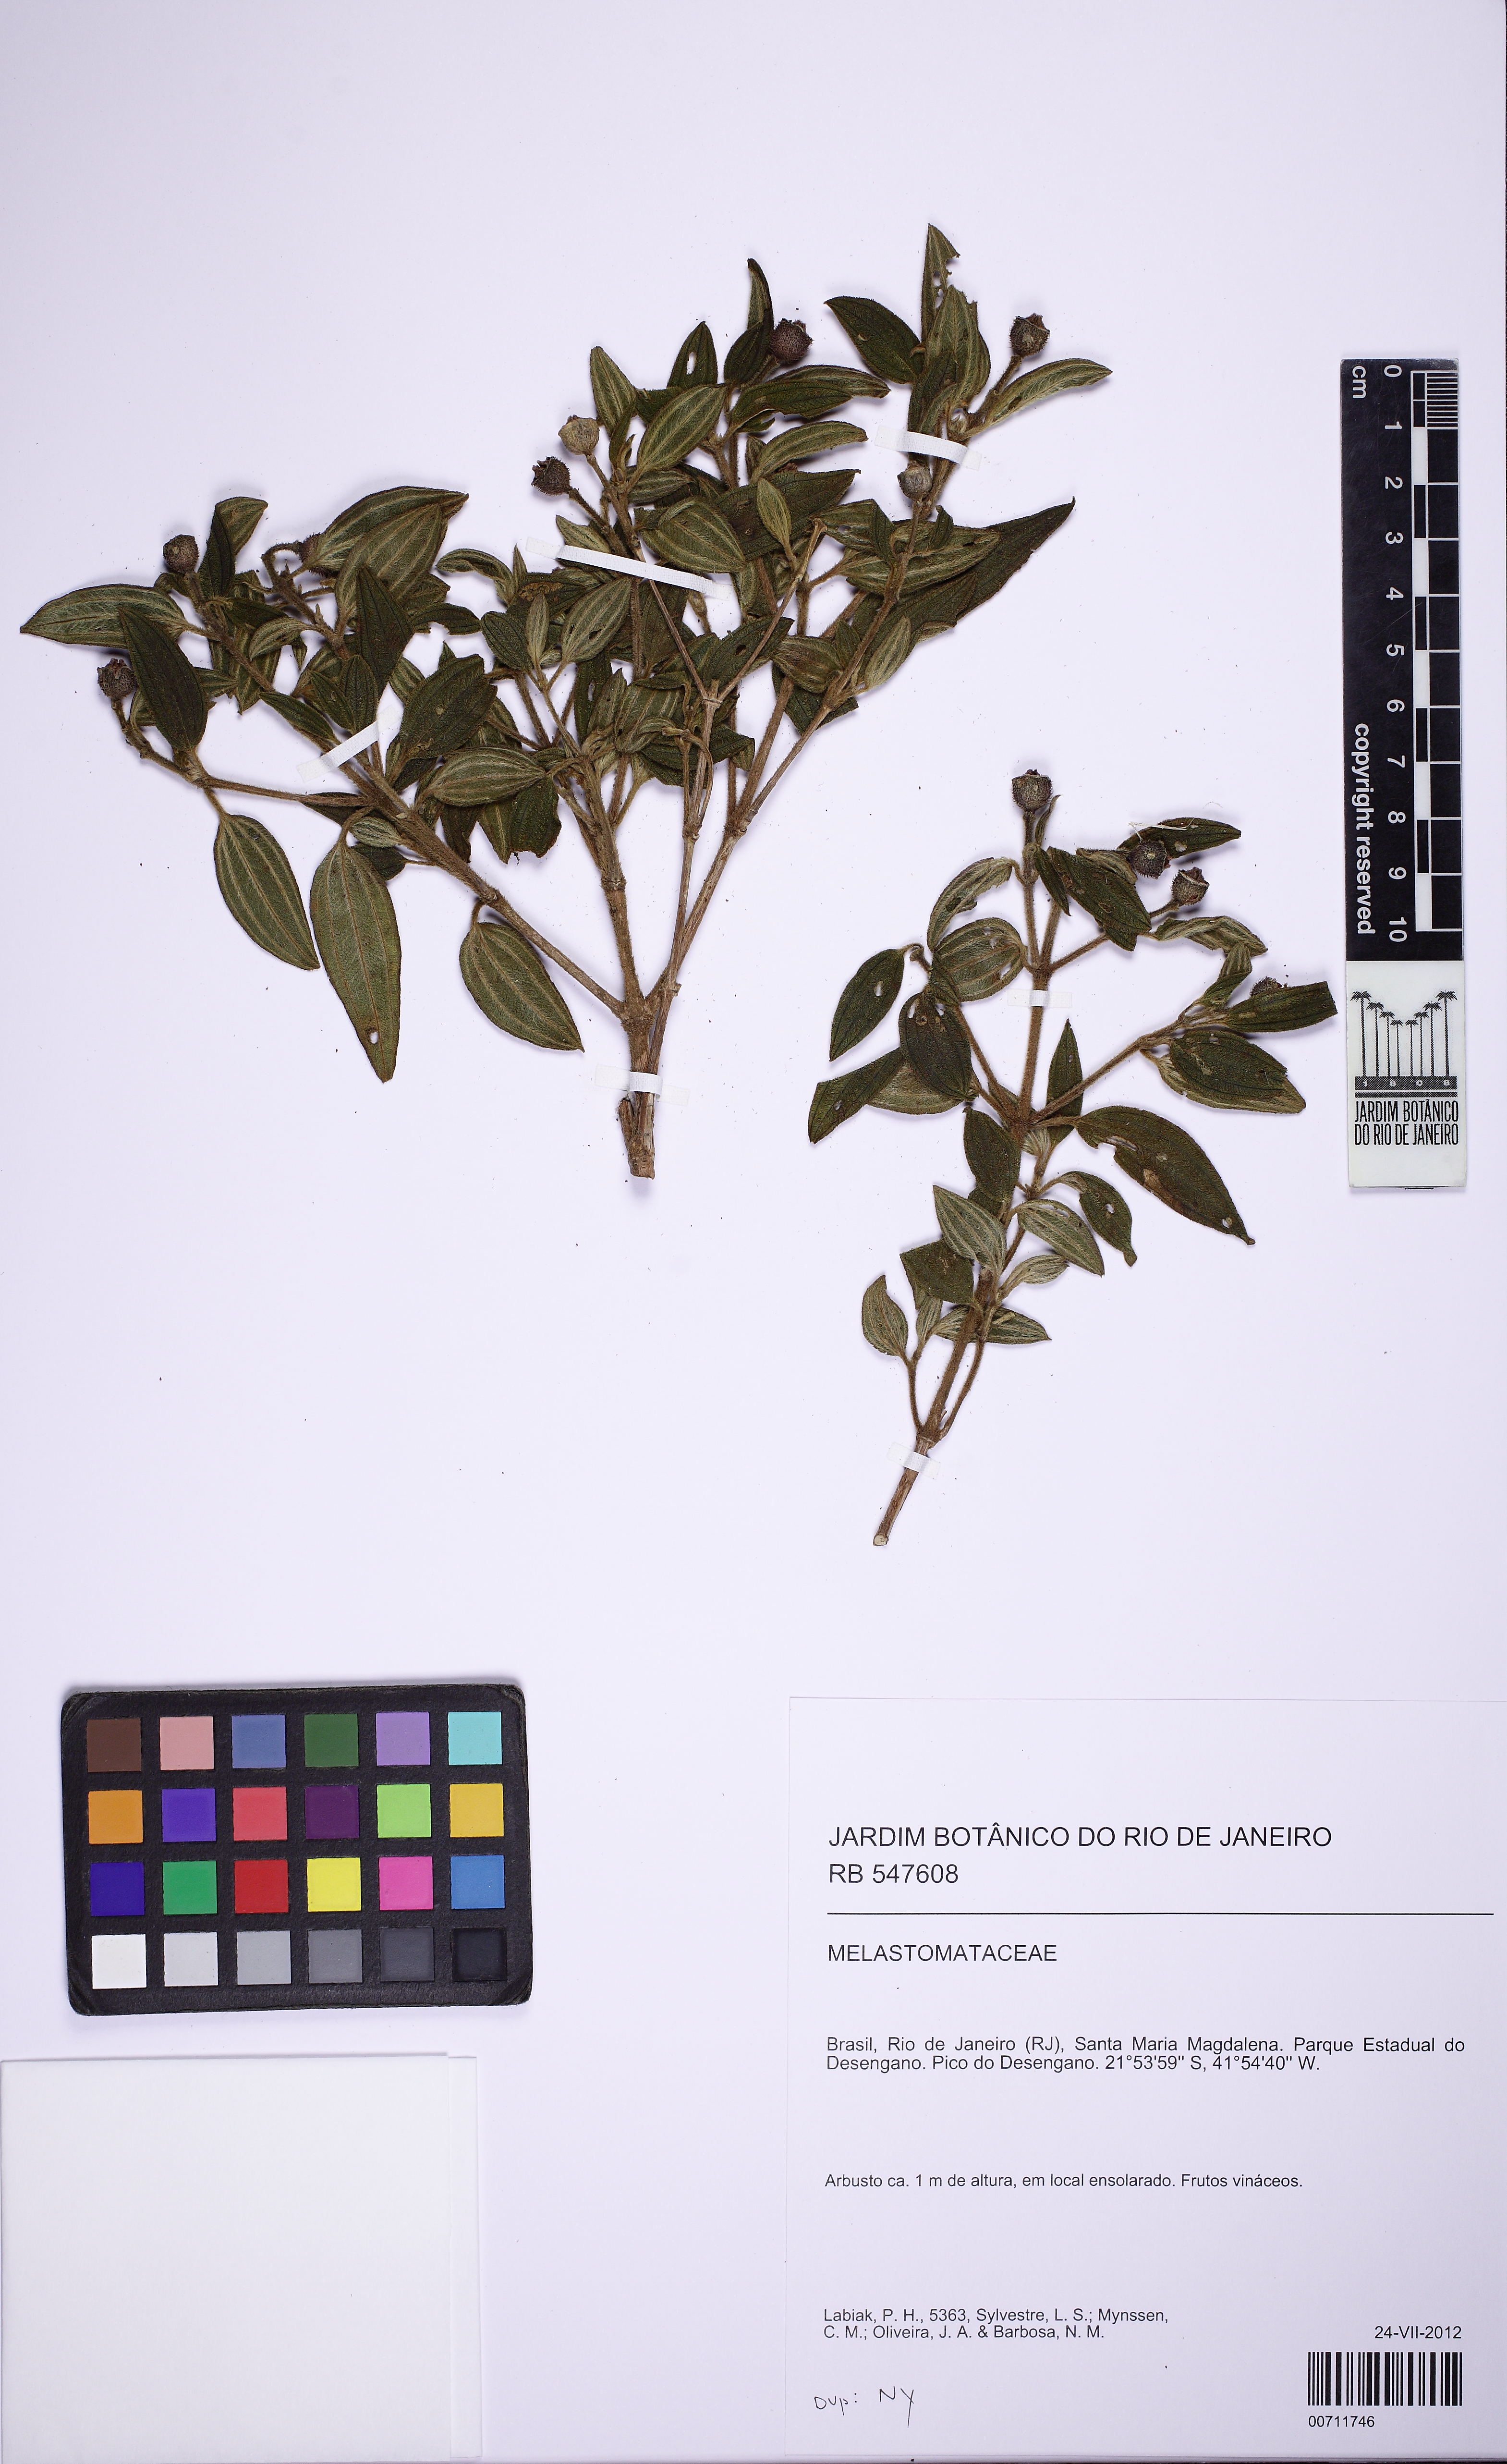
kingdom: Plantae
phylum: Tracheophyta
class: Magnoliopsida
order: Myrtales
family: Melastomataceae
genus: Tibouchina
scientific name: Tibouchina
